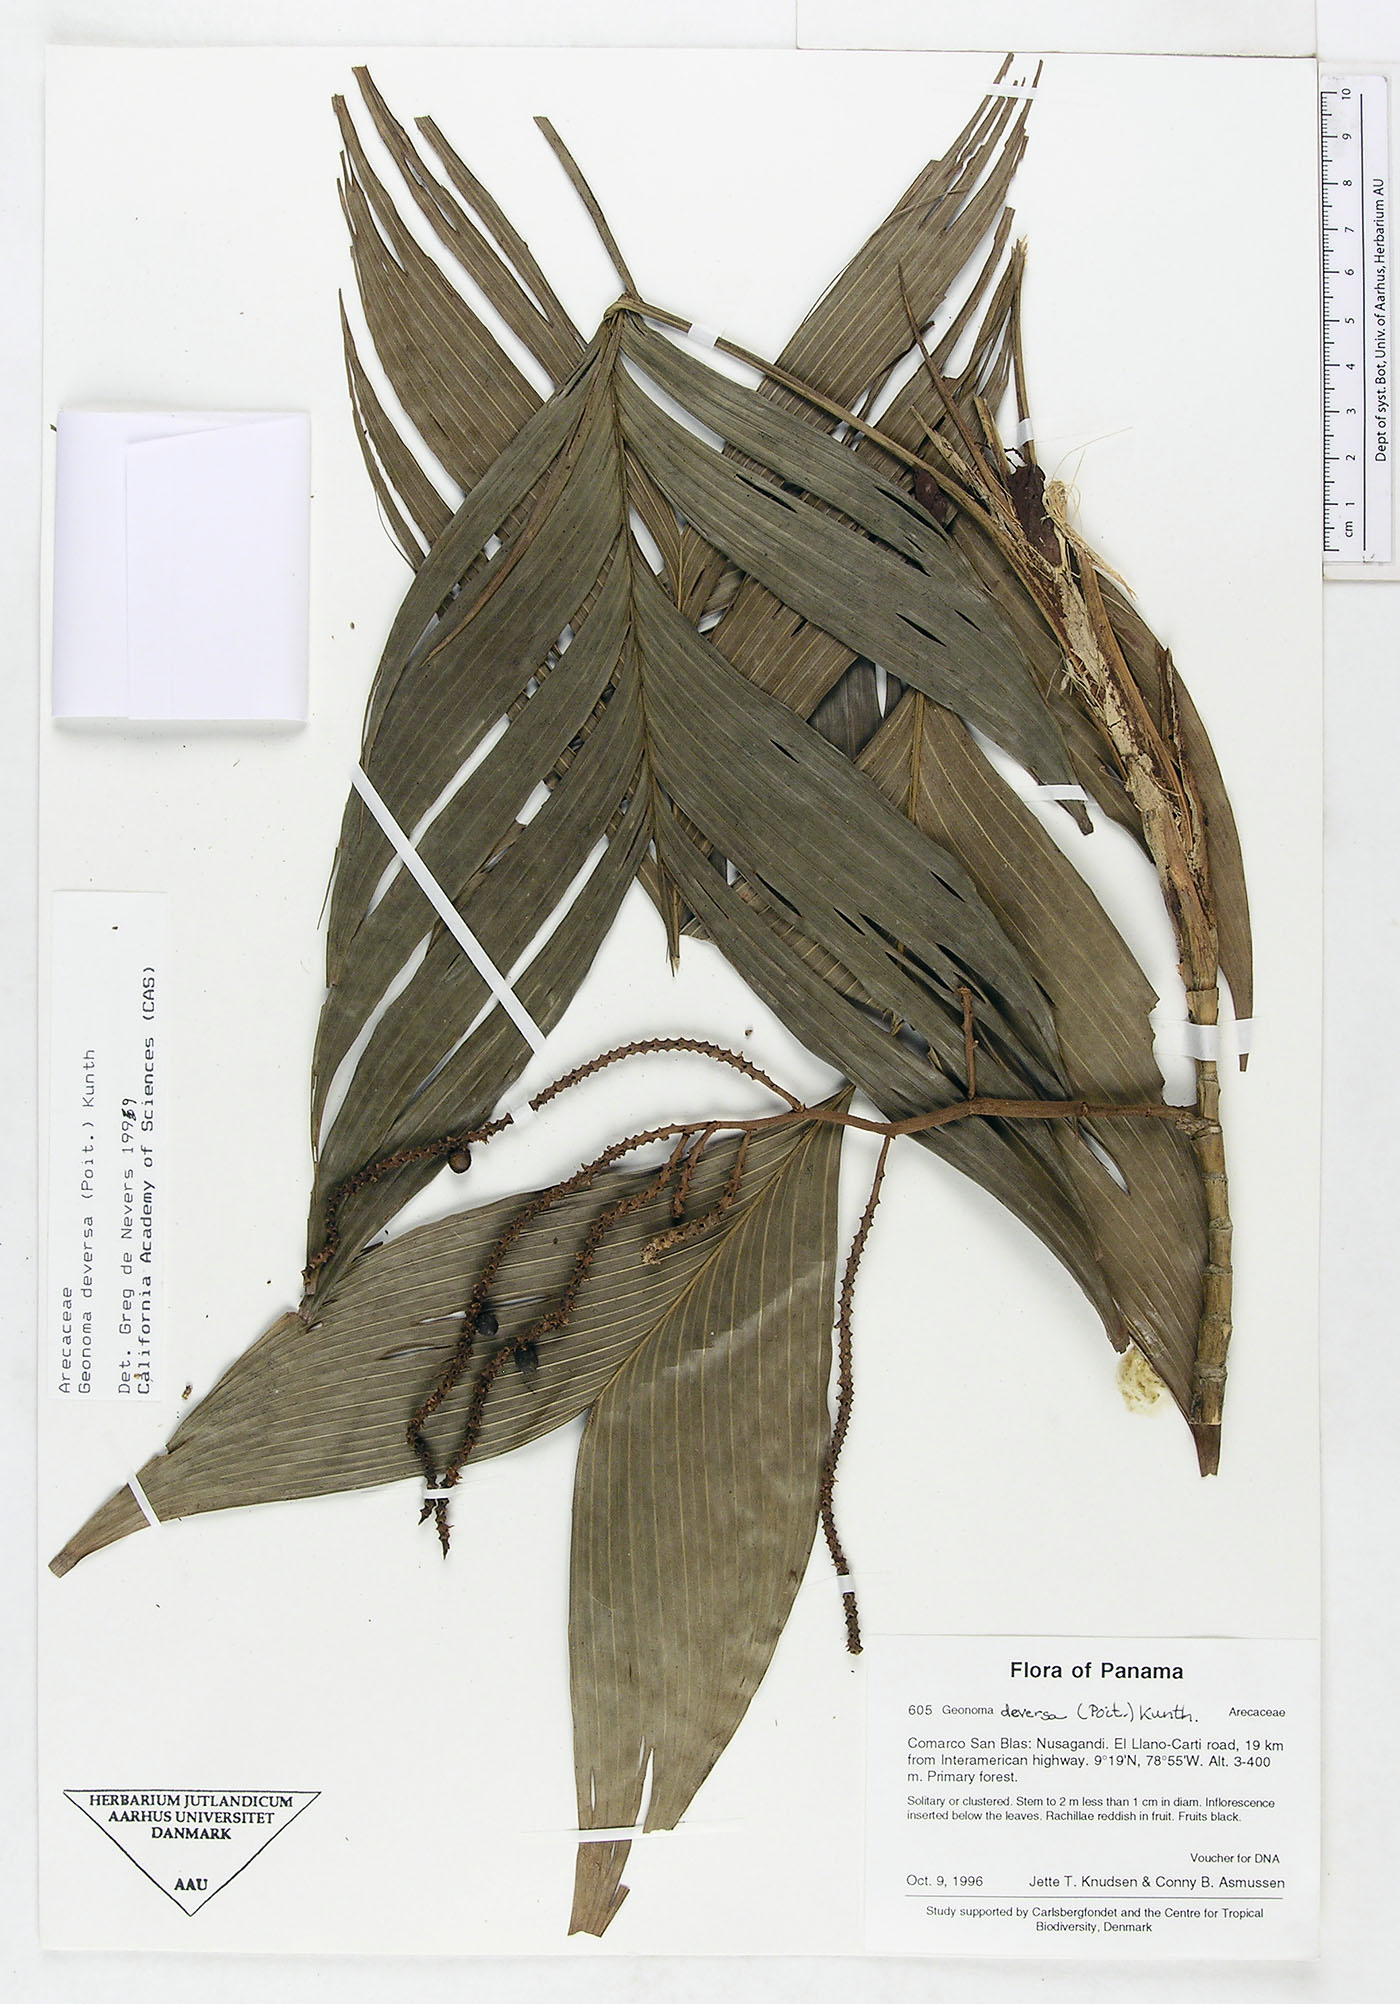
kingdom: Plantae
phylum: Tracheophyta
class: Liliopsida
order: Arecales
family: Arecaceae
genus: Geonoma
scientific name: Geonoma deversa
